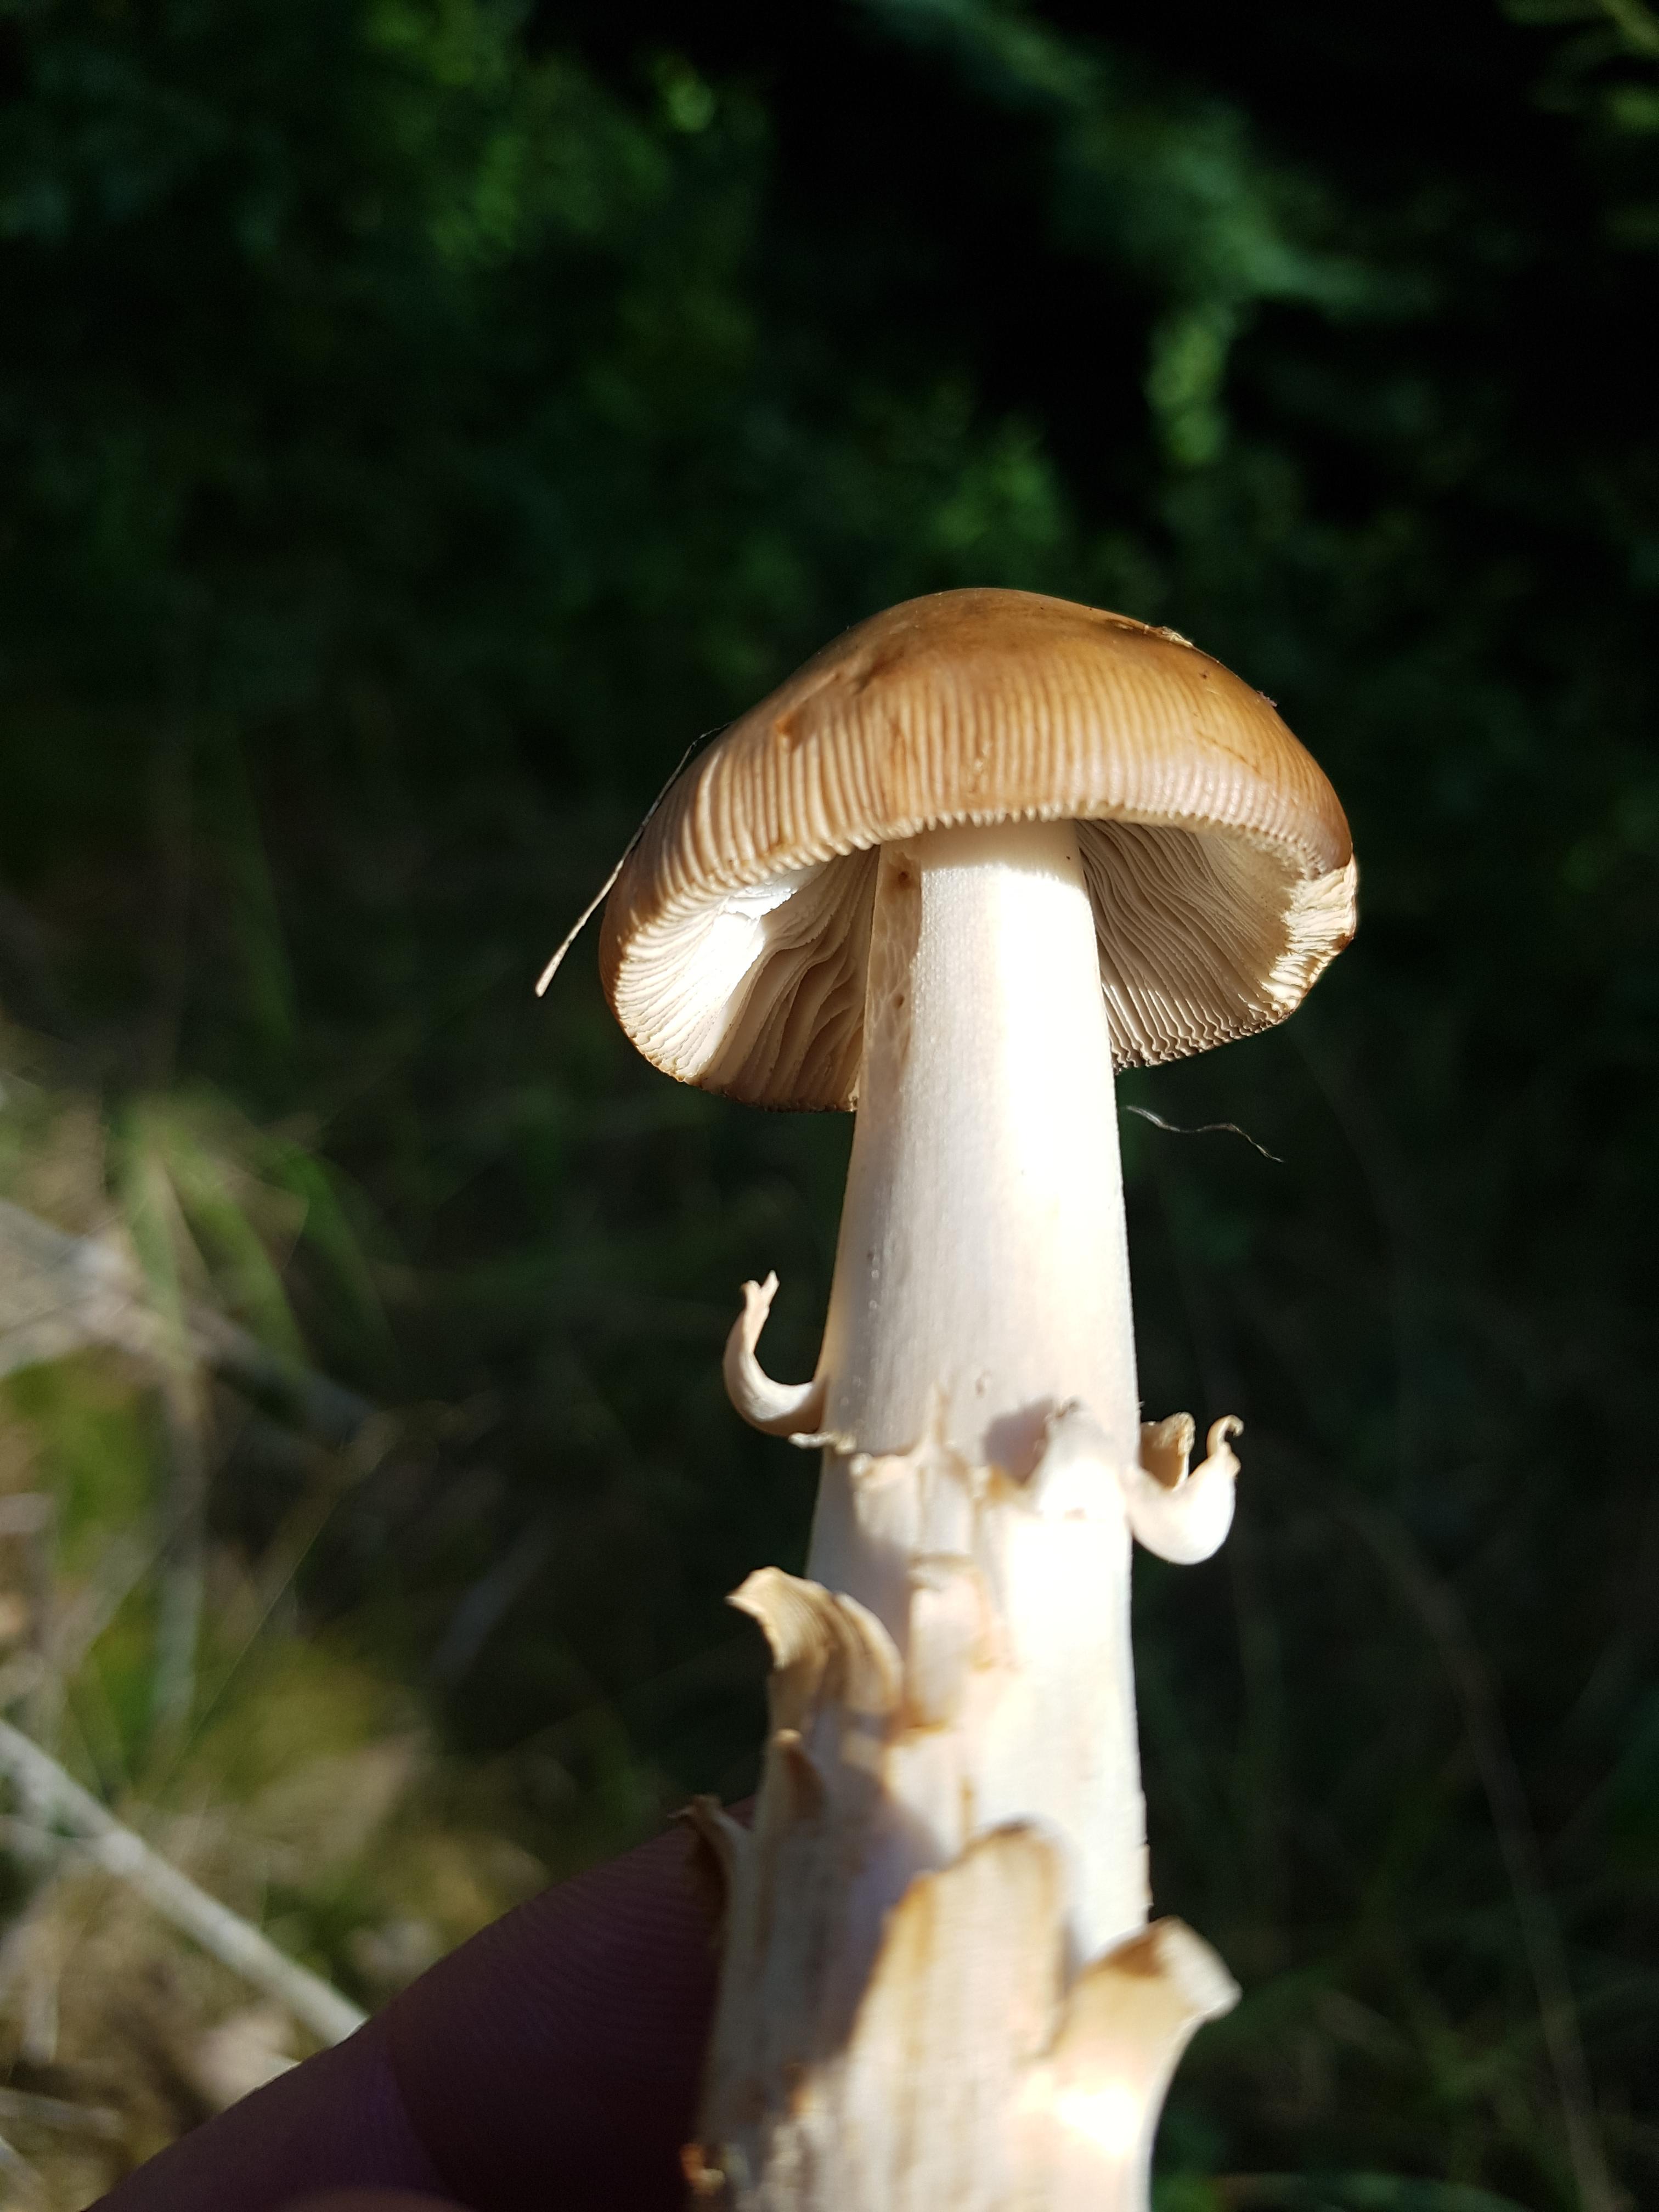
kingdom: Fungi
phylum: Basidiomycota
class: Agaricomycetes
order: Agaricales
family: Amanitaceae
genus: Amanita
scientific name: Amanita fulva
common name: brun kam-fluesvamp
